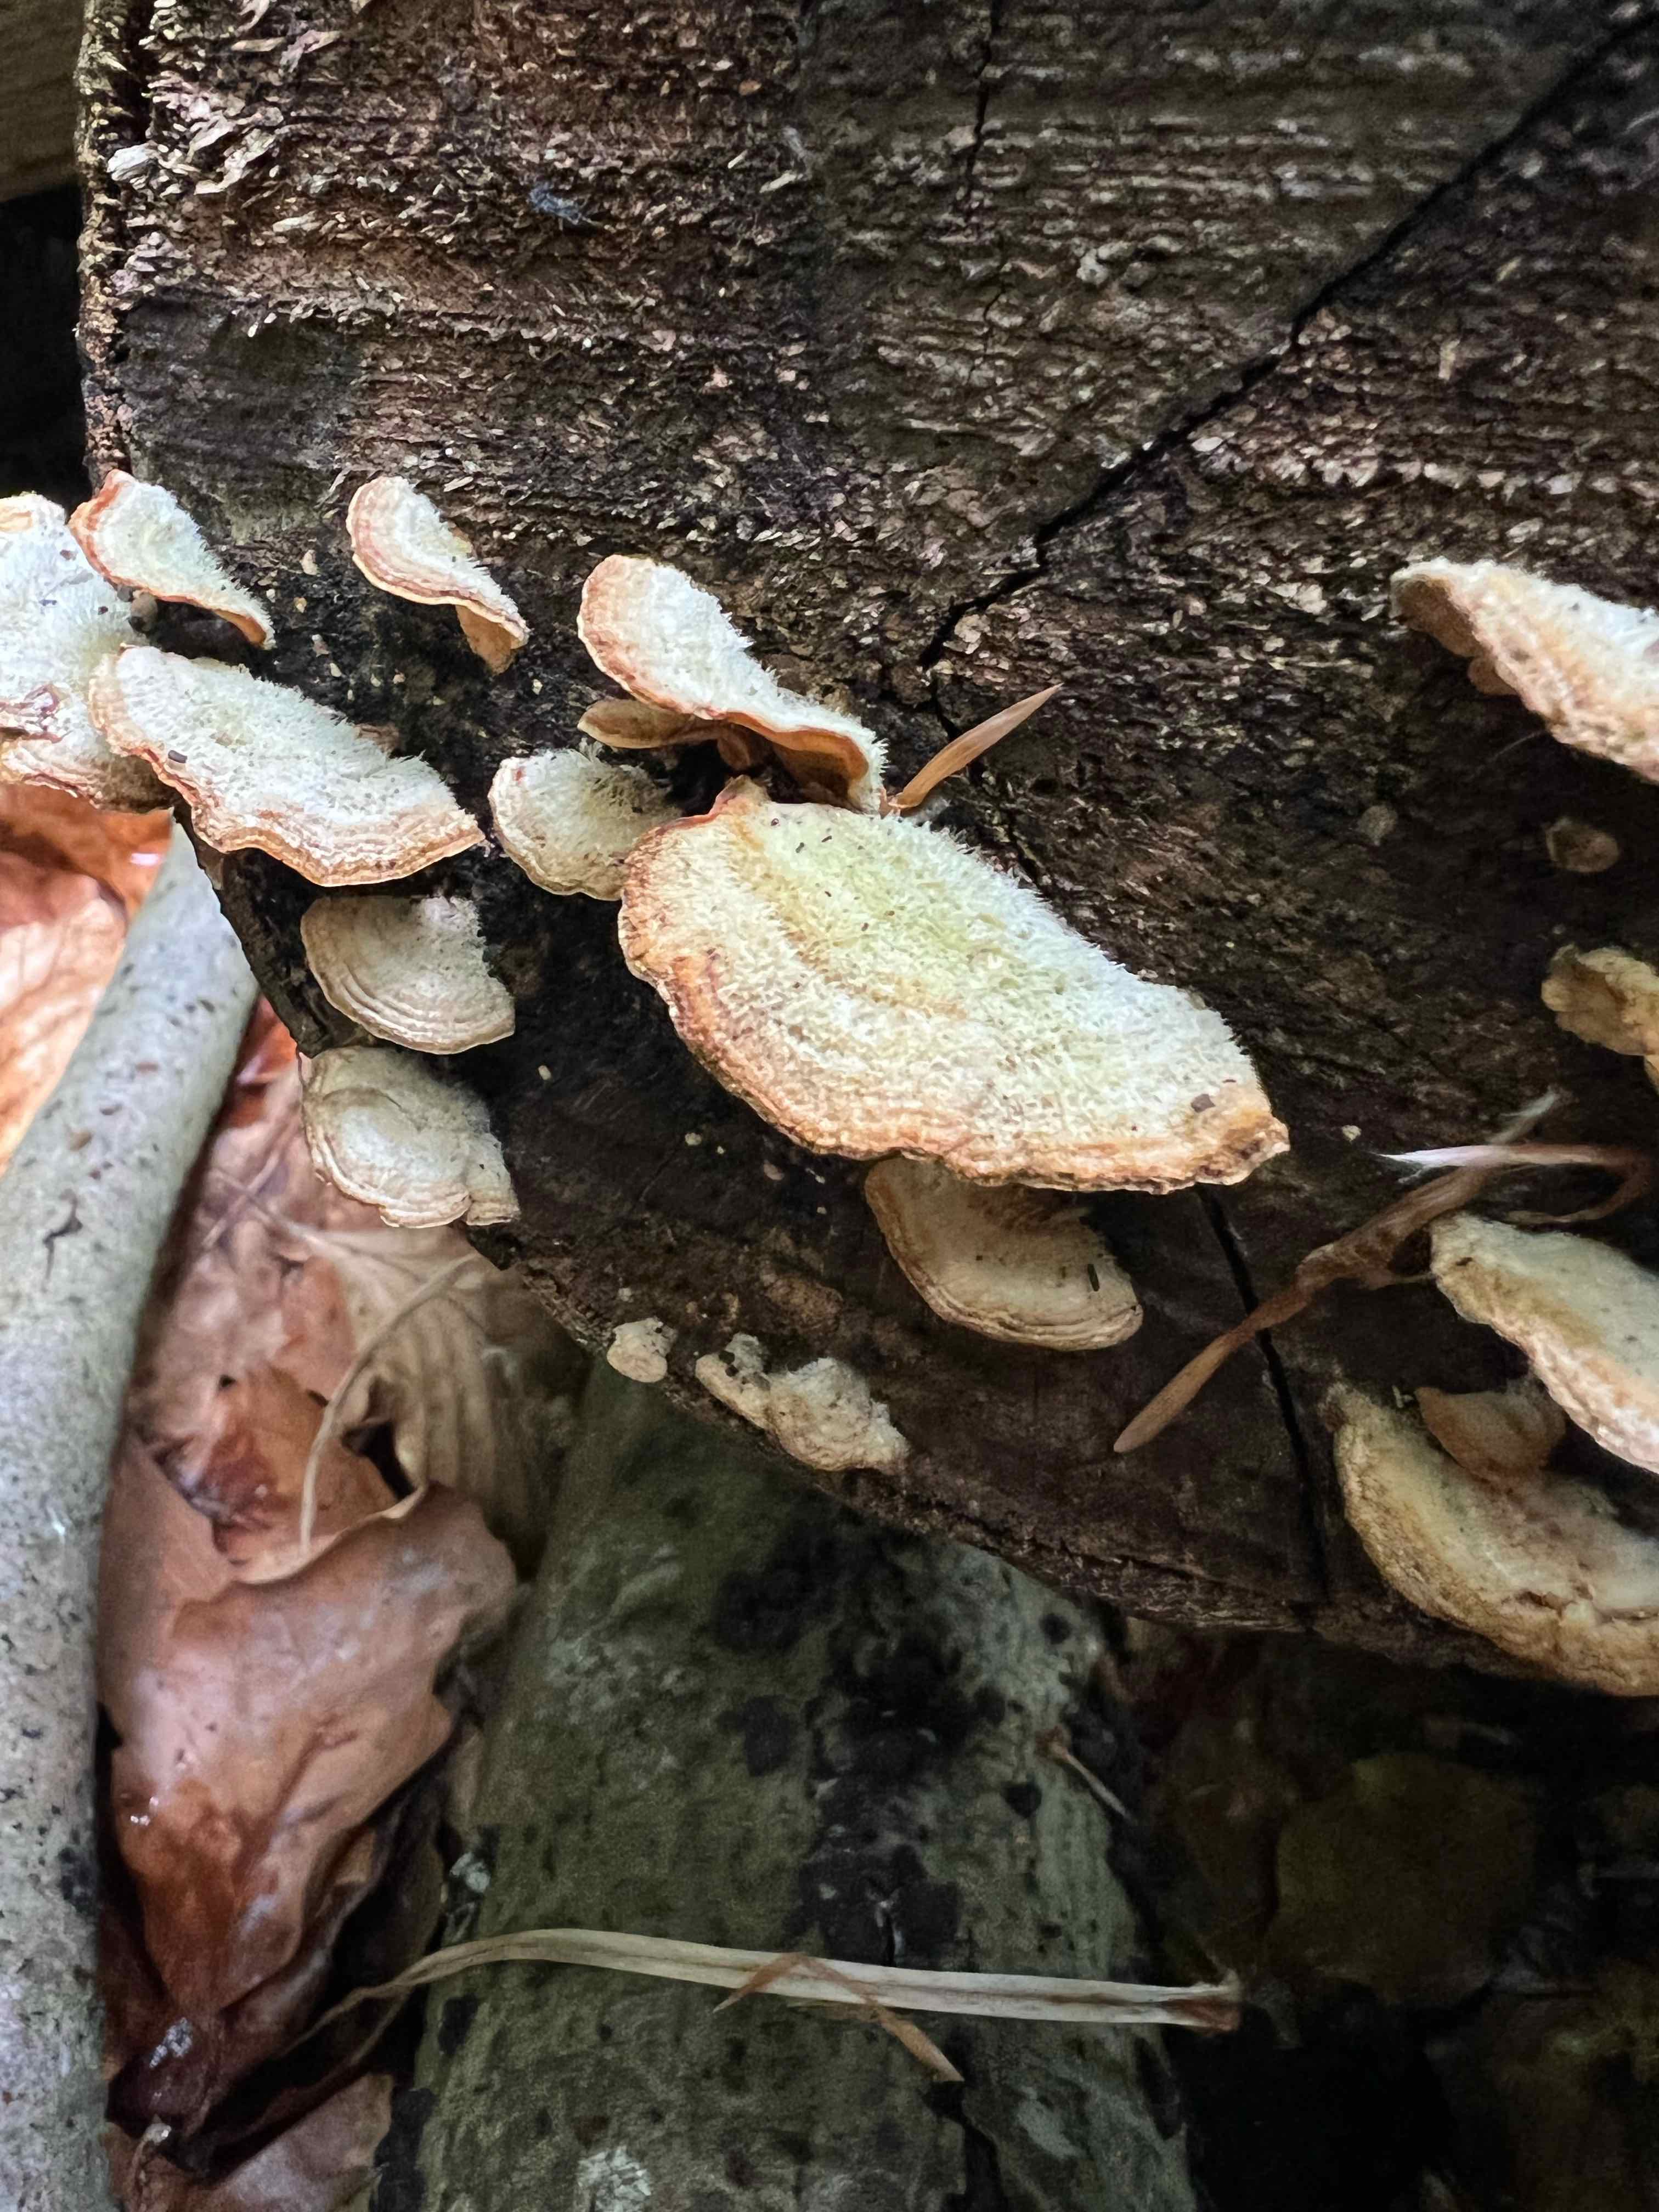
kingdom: Fungi
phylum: Basidiomycota
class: Agaricomycetes
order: Russulales
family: Stereaceae
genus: Stereum
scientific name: Stereum hirsutum
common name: håret lædersvamp
